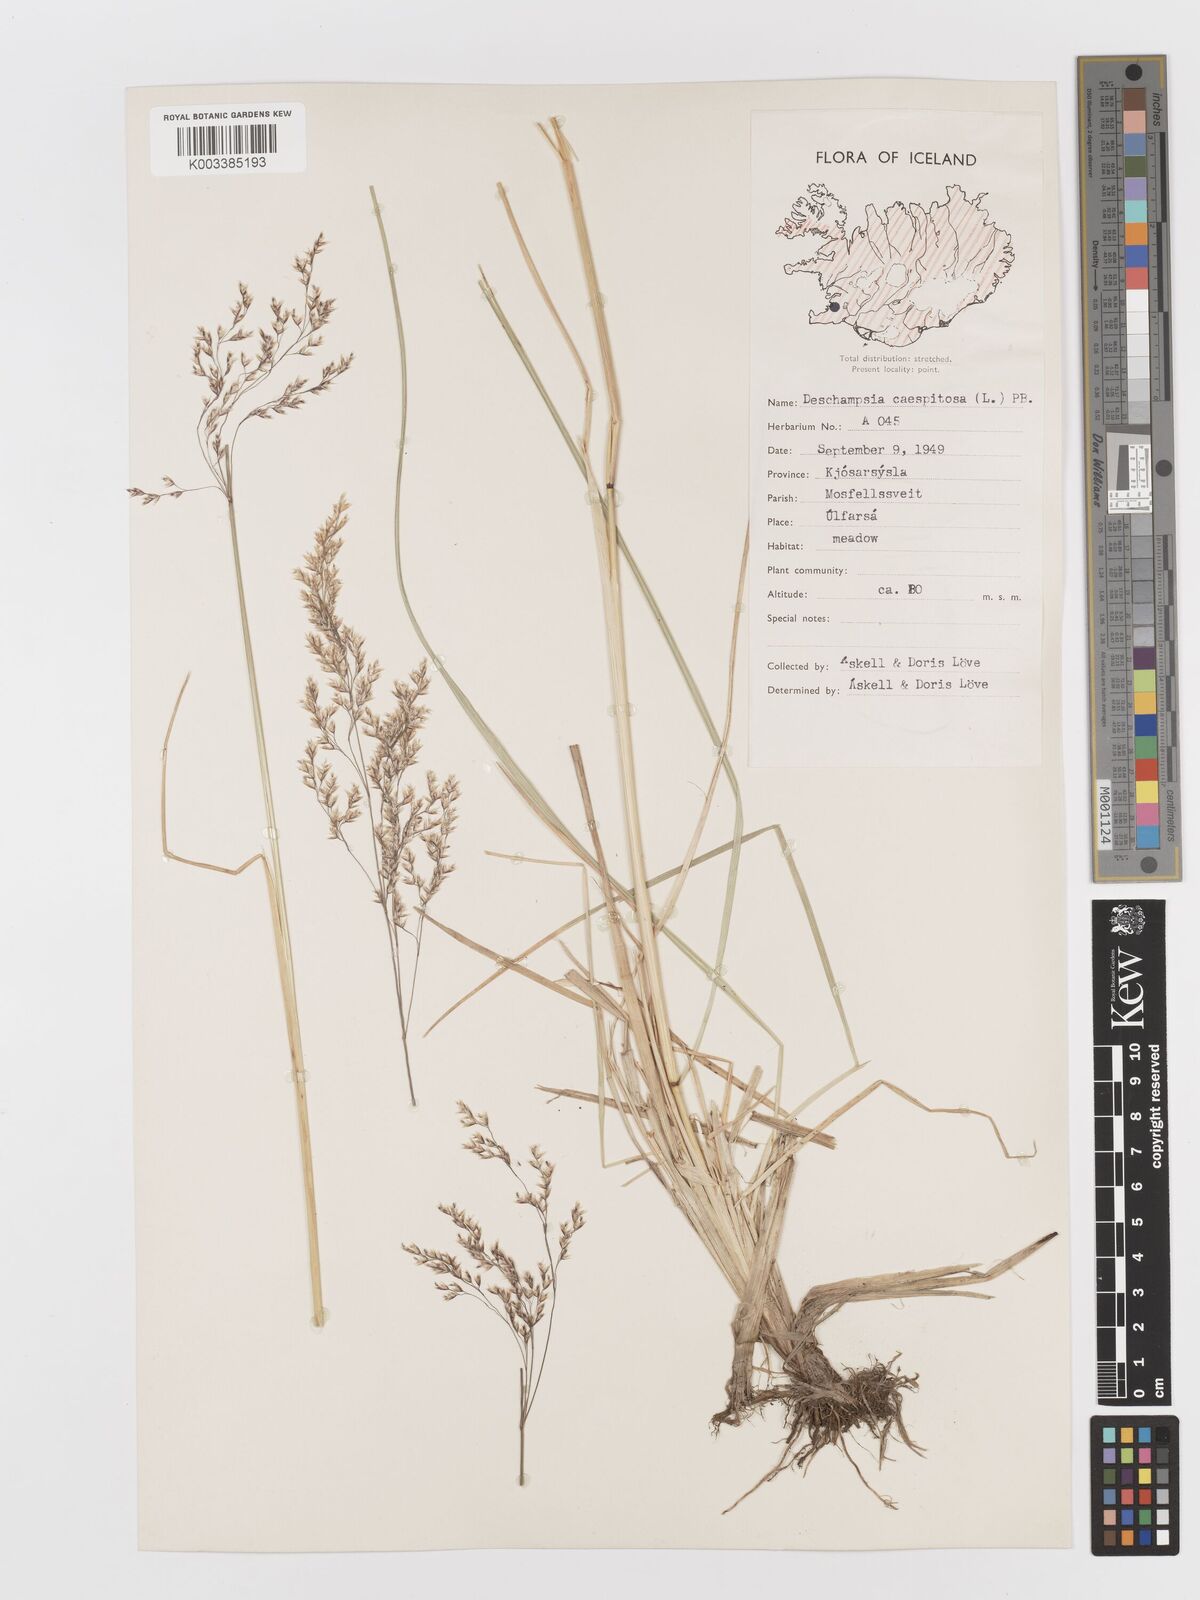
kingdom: Plantae
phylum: Tracheophyta
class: Liliopsida
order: Poales
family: Poaceae
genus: Deschampsia
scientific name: Deschampsia cespitosa
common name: Tufted hair-grass
